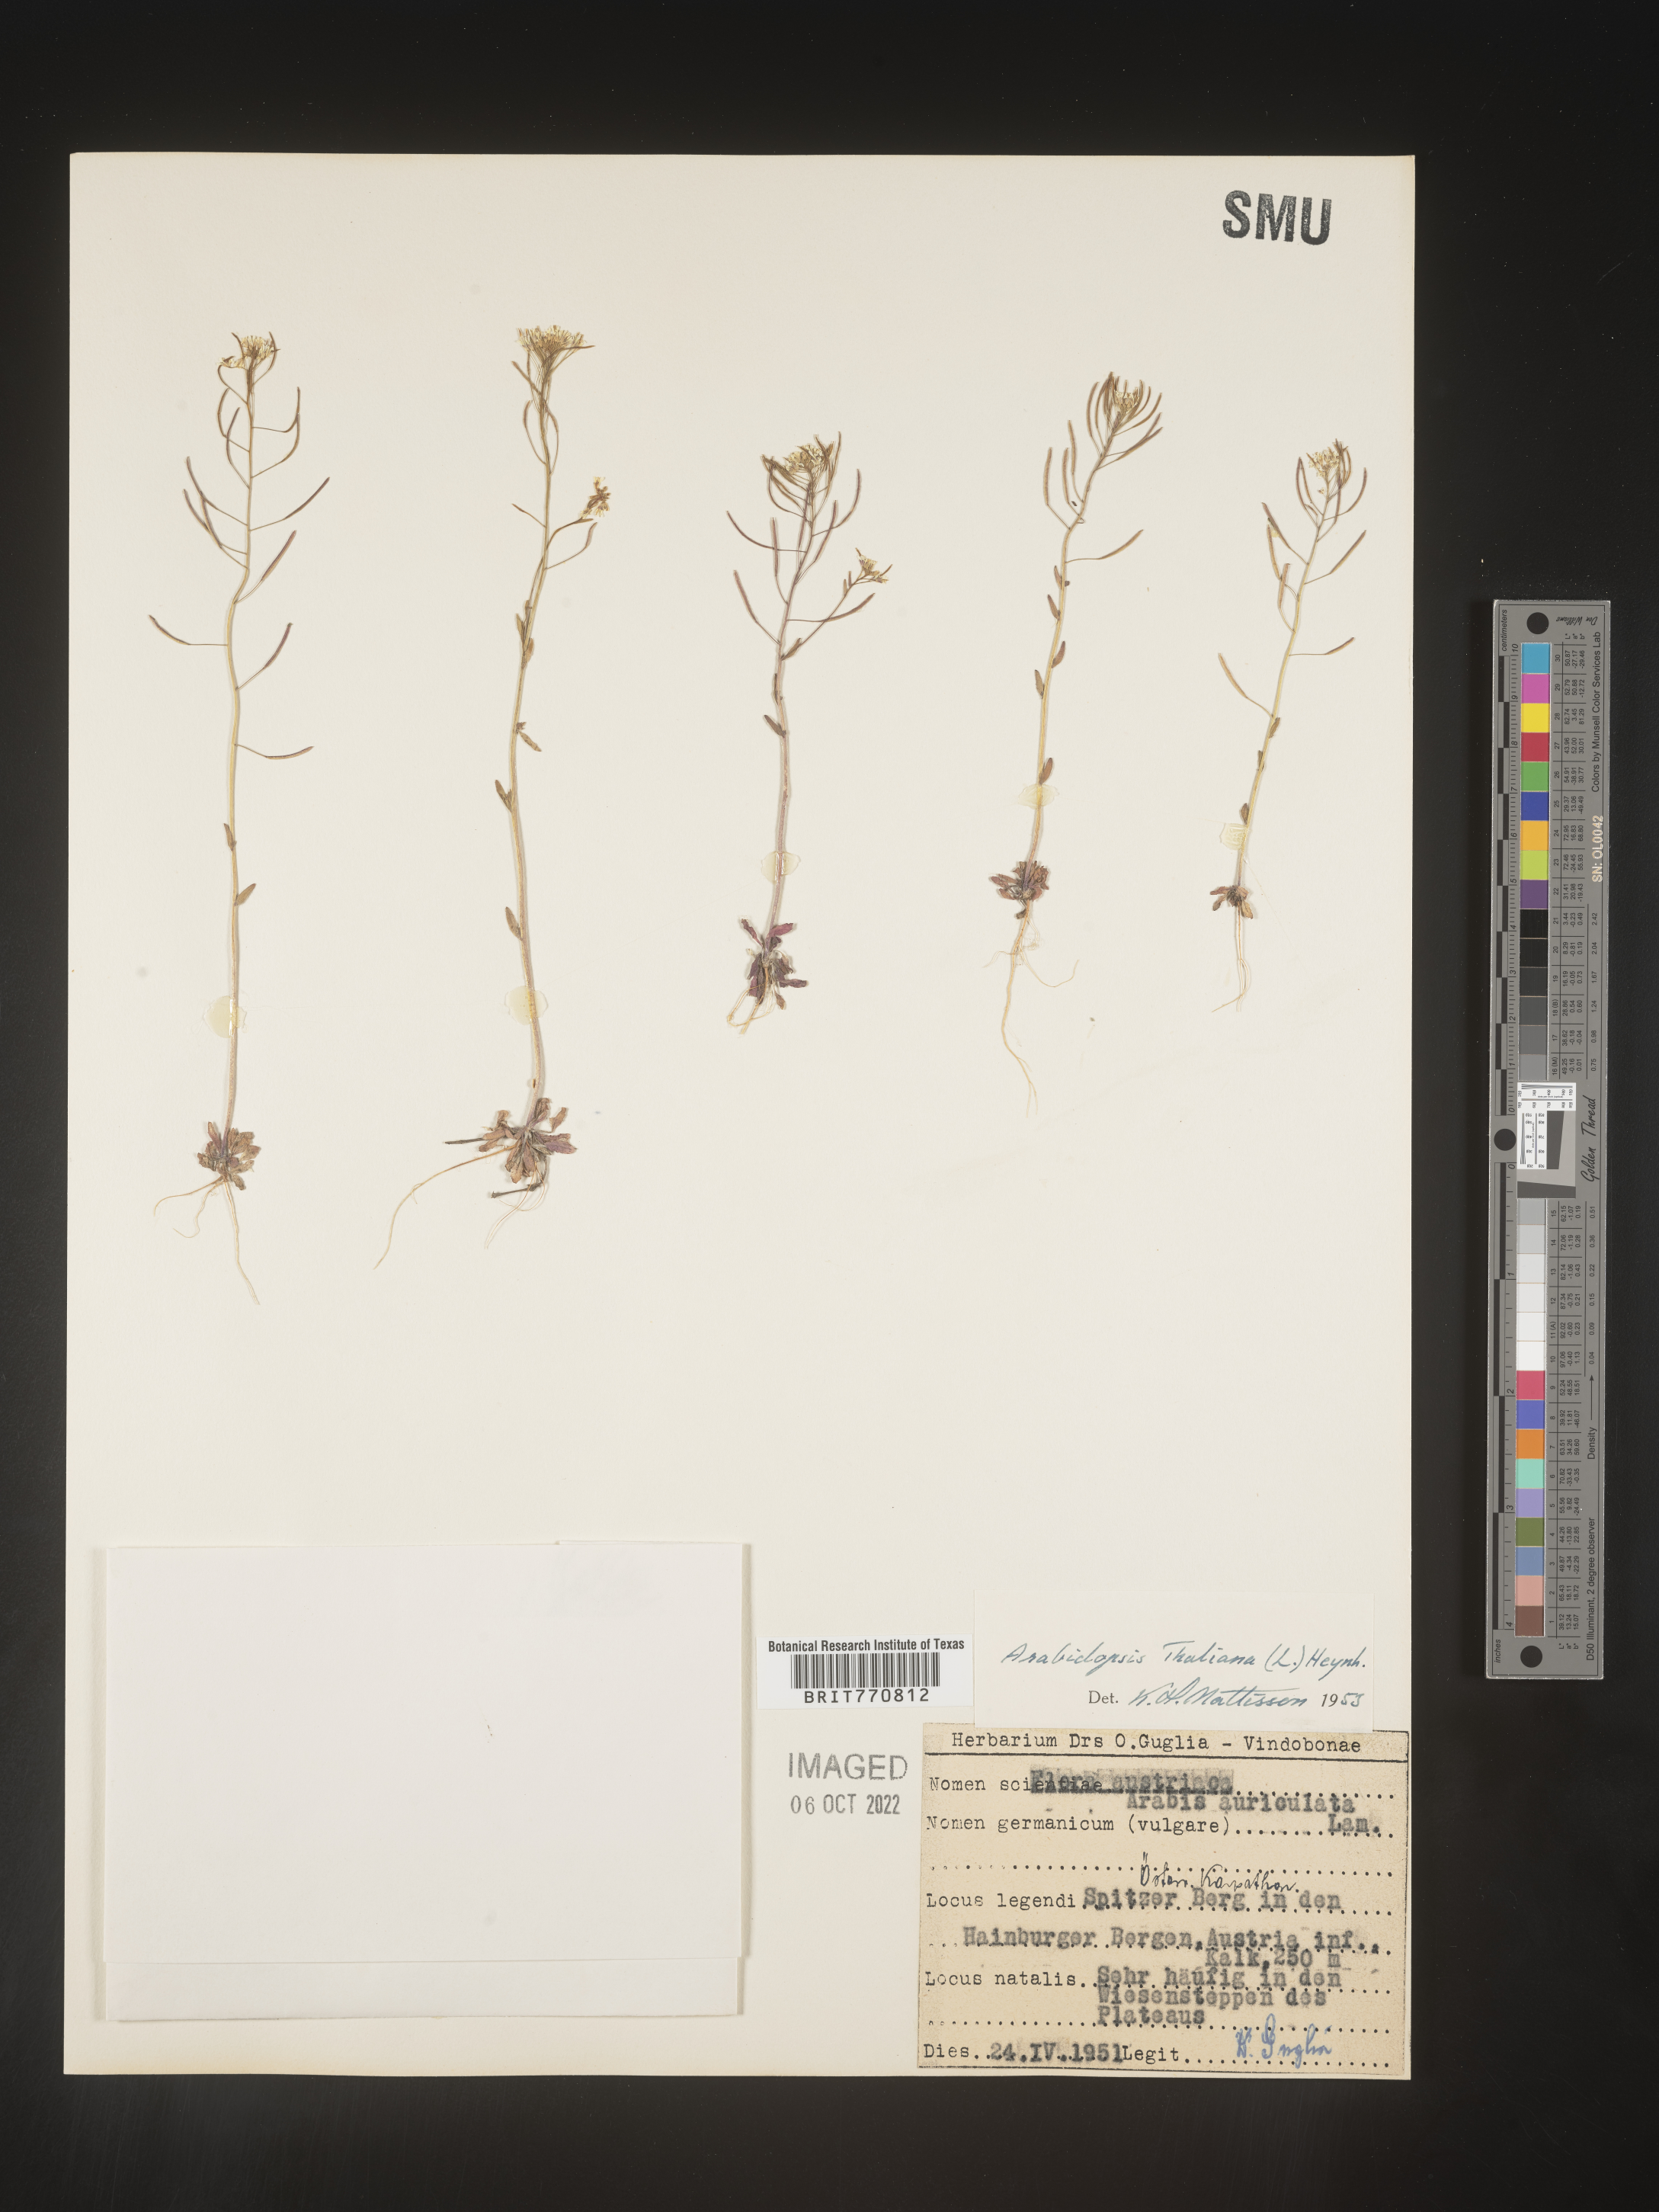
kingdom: Plantae
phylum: Tracheophyta
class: Magnoliopsida
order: Brassicales
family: Brassicaceae
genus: Arabidopsis
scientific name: Arabidopsis
